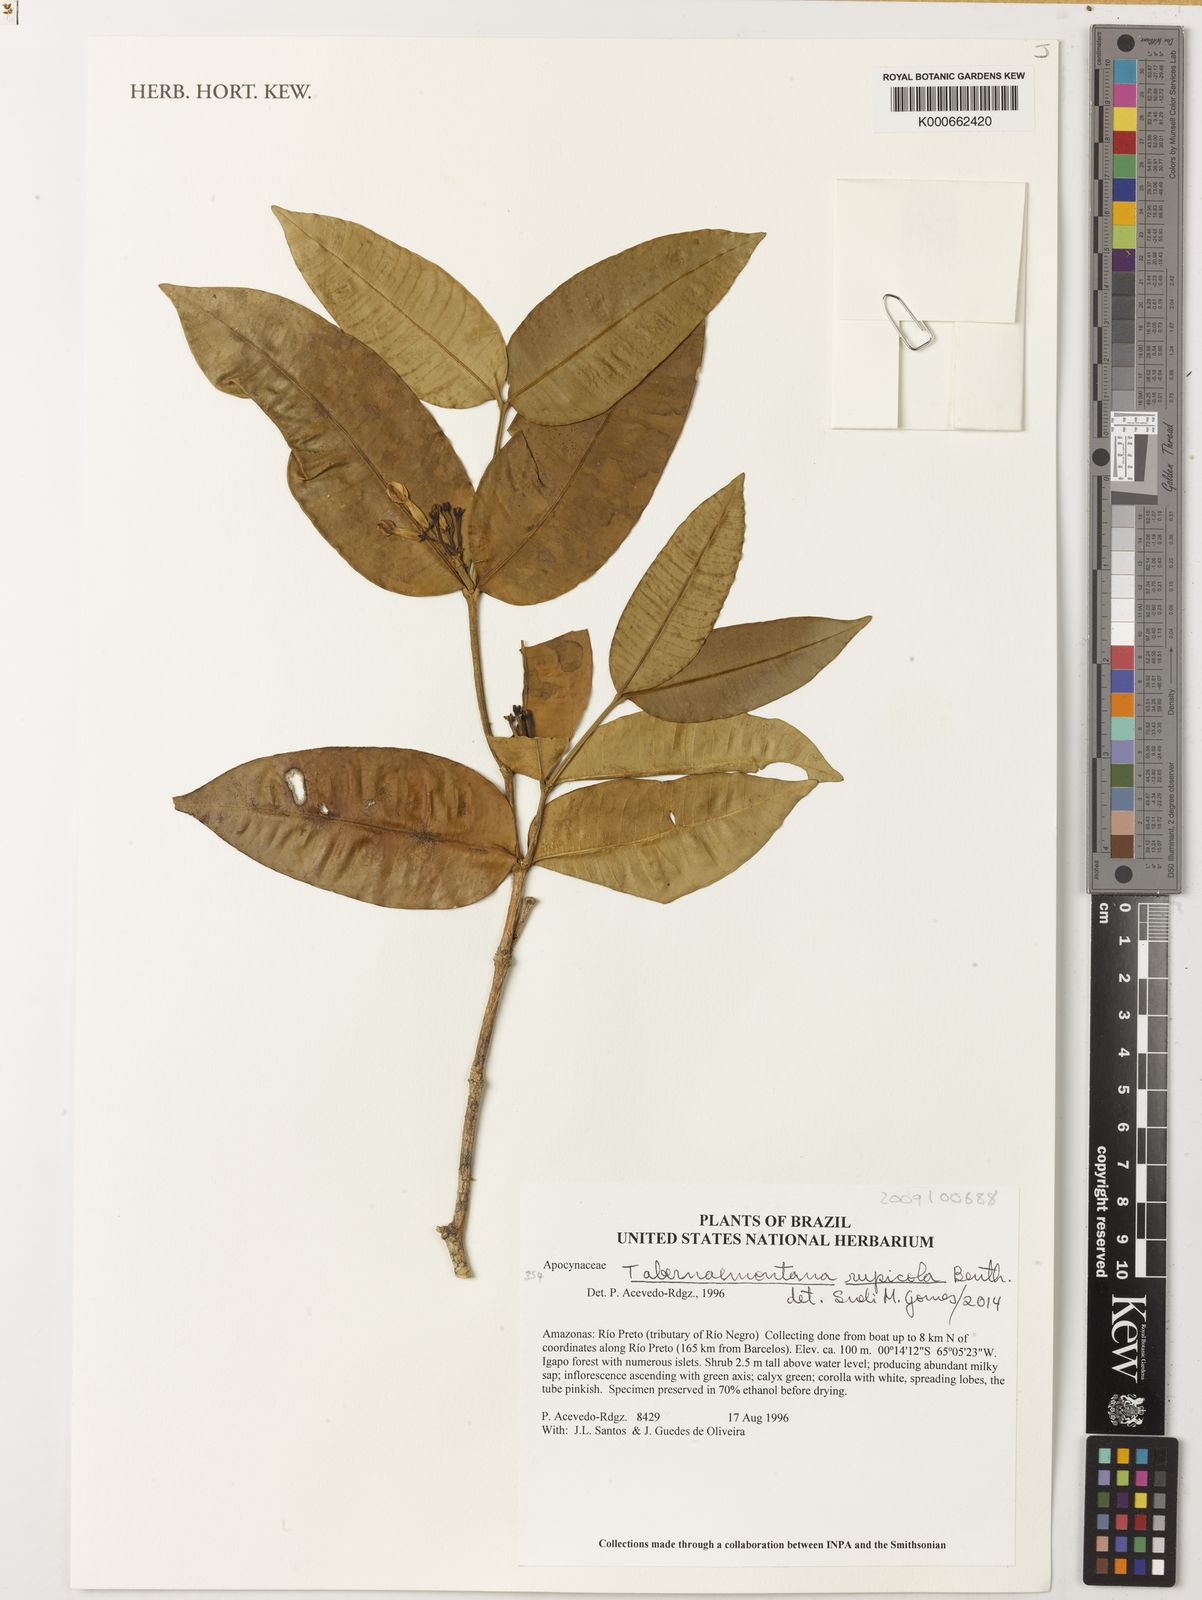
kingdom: Plantae
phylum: Tracheophyta
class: Magnoliopsida
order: Gentianales
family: Apocynaceae
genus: Tabernaemontana
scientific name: Tabernaemontana rupicola
